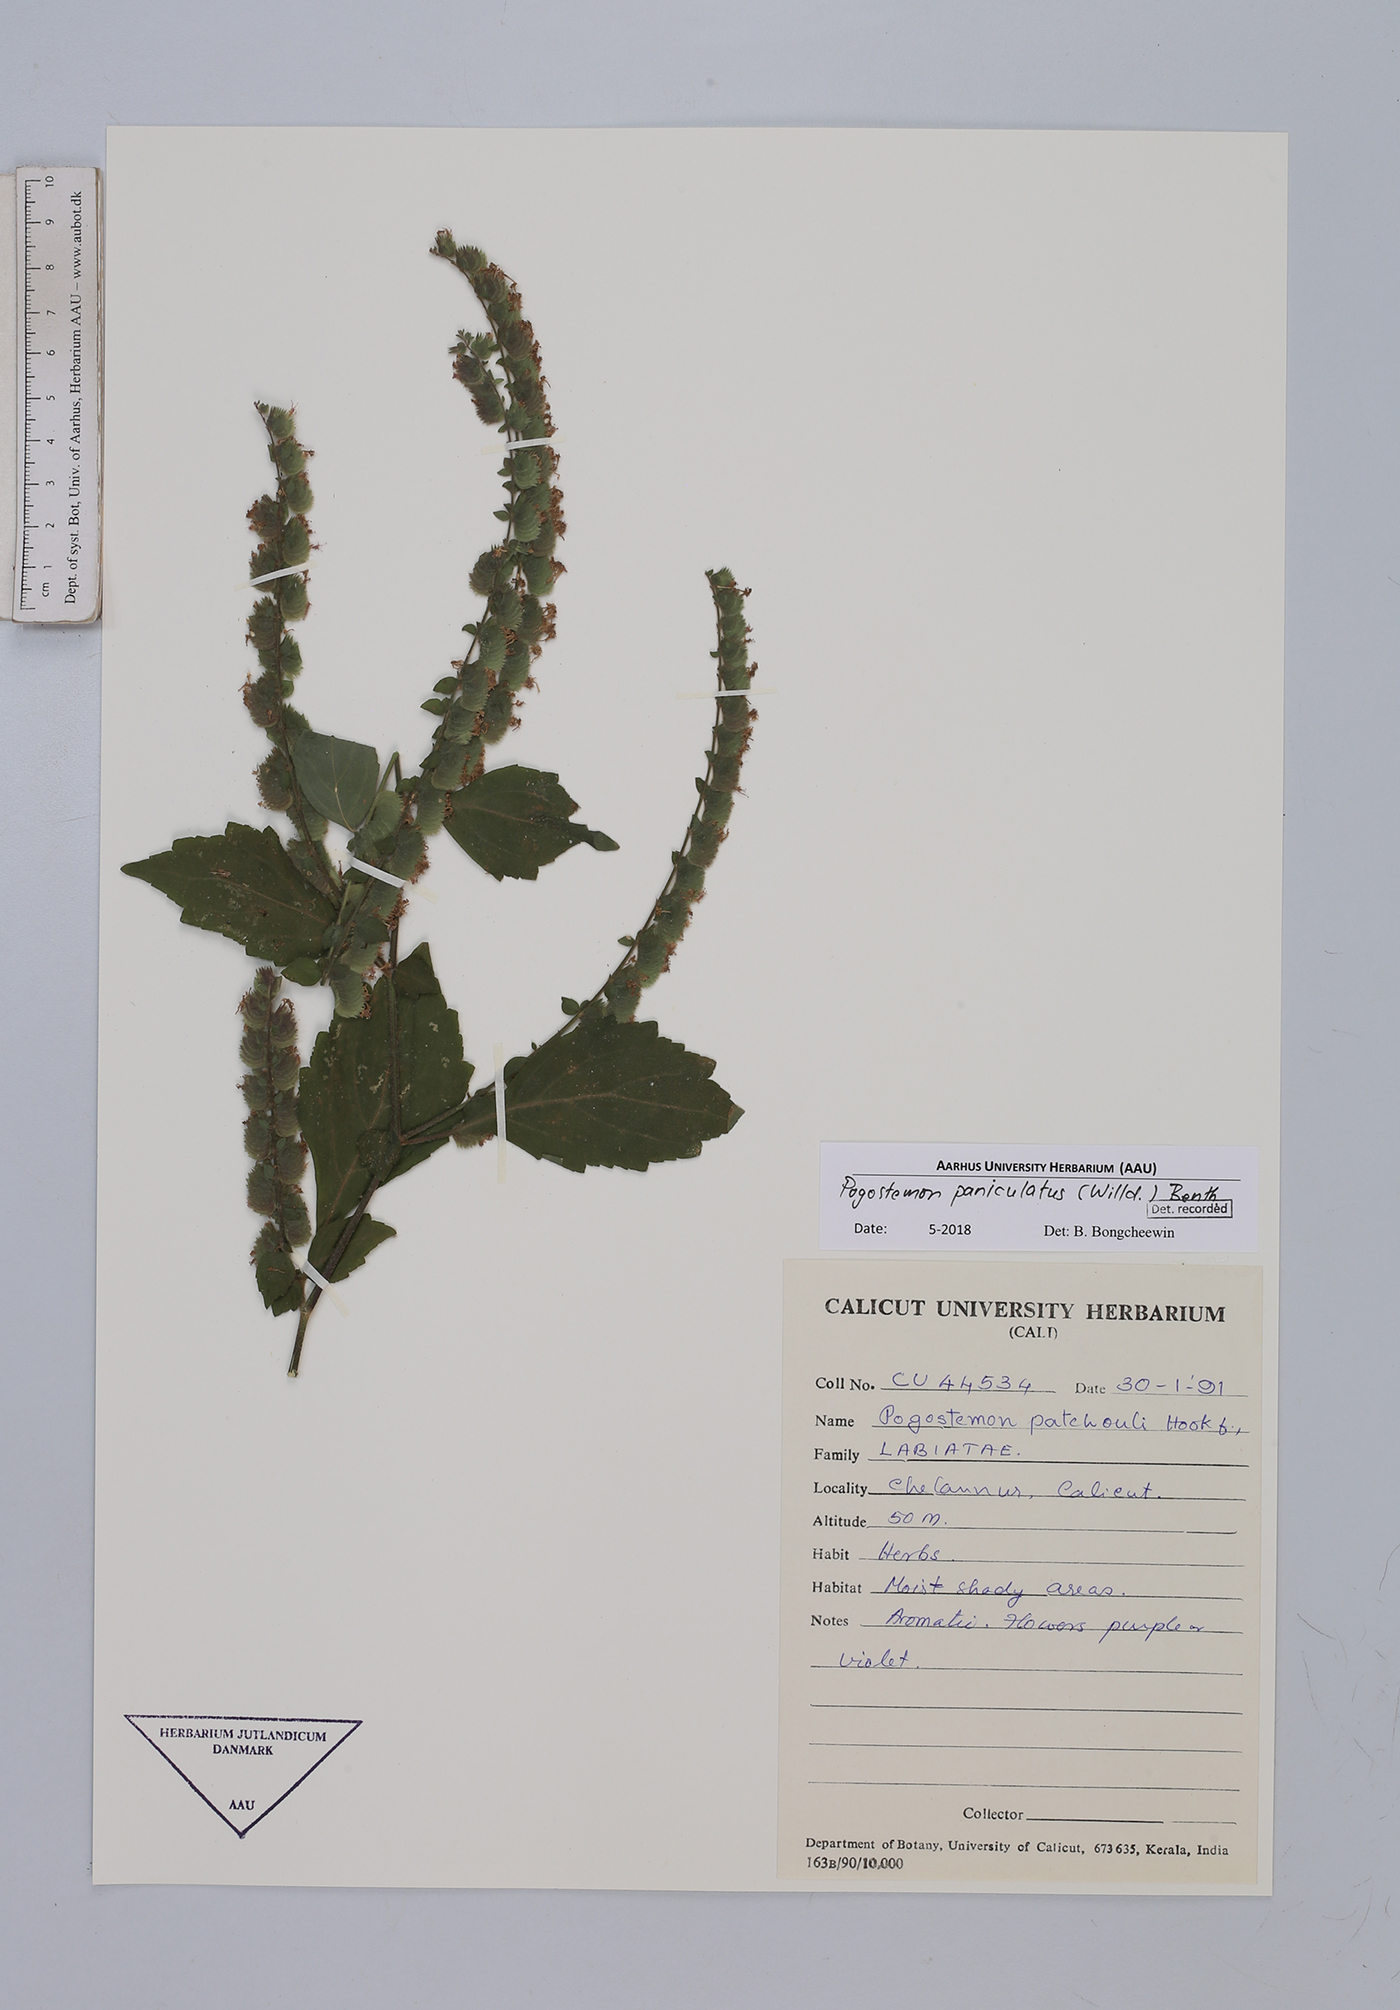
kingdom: Plantae
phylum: Tracheophyta
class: Magnoliopsida
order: Lamiales
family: Lamiaceae
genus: Pogostemon
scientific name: Pogostemon paniculatus
